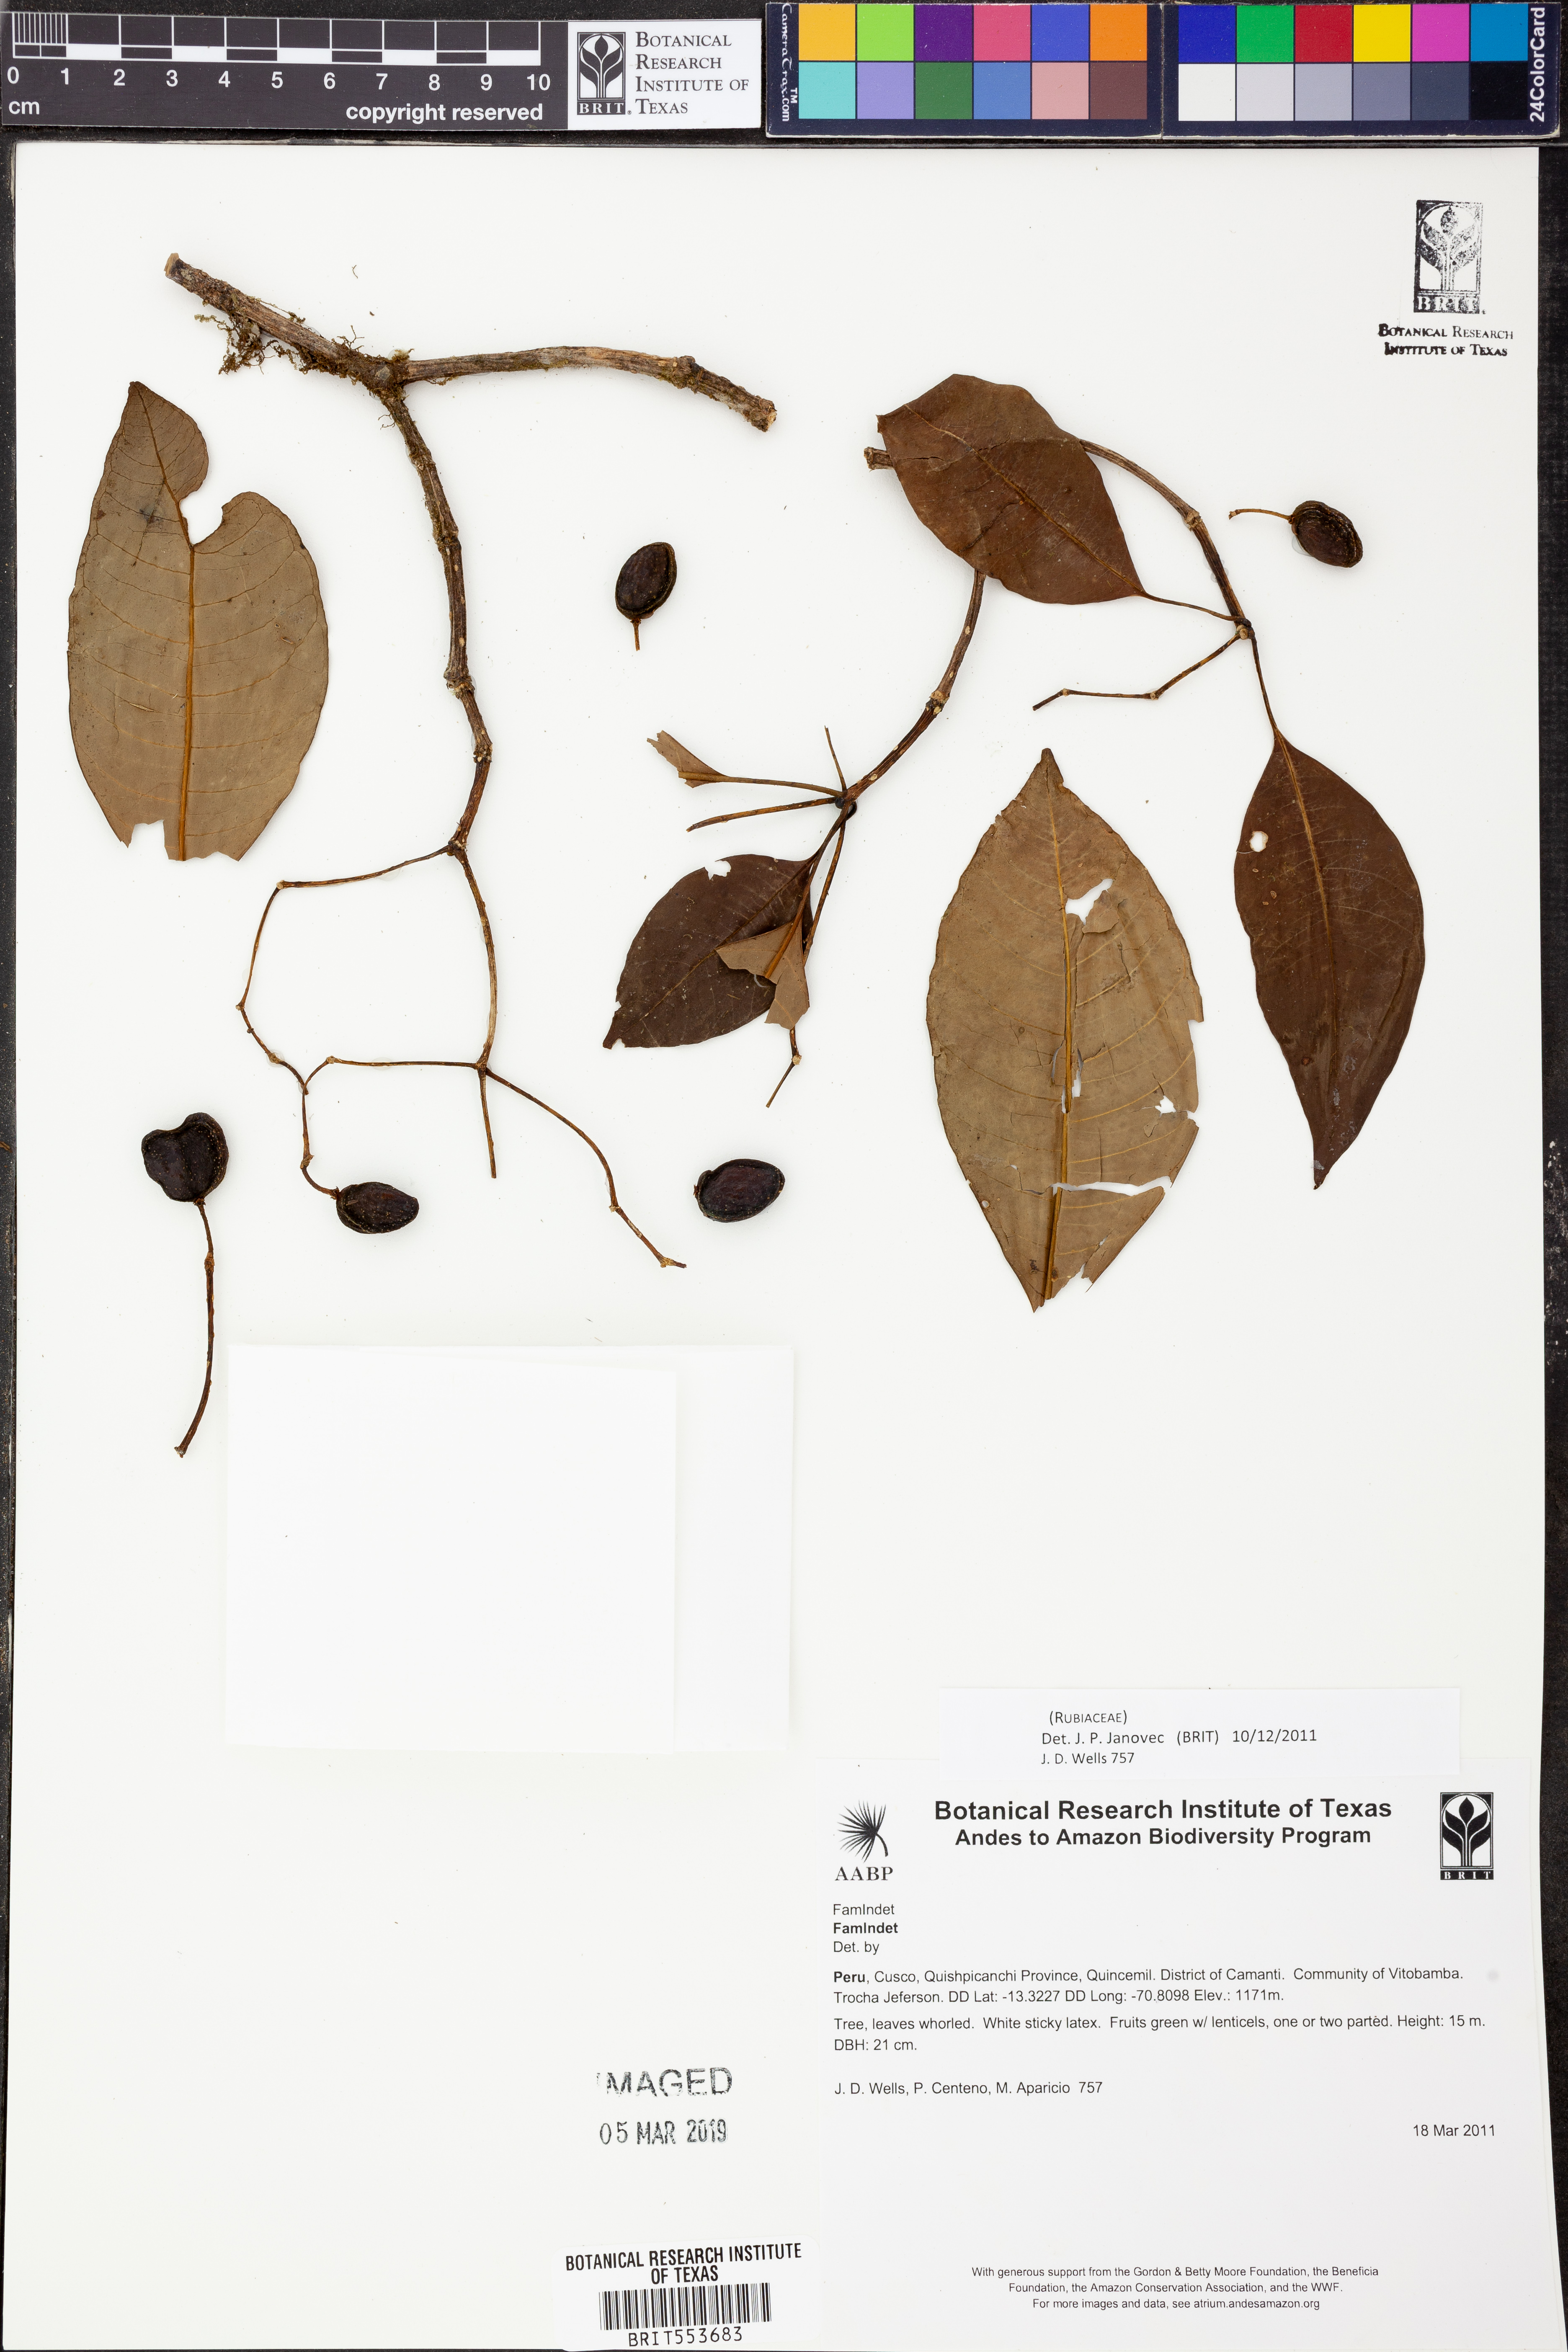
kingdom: Plantae
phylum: Tracheophyta
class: Magnoliopsida
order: Gentianales
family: Rubiaceae
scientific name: Rubiaceae
